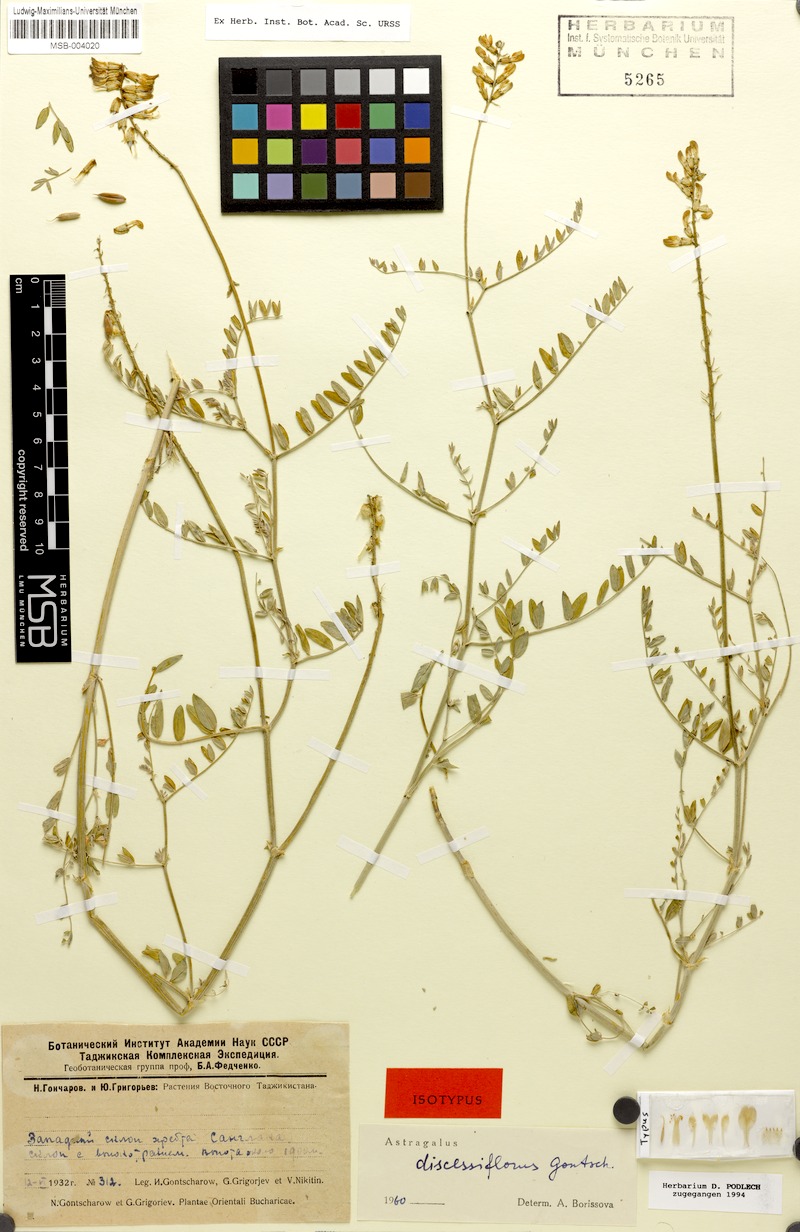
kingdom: Plantae
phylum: Tracheophyta
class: Magnoliopsida
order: Fabales
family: Fabaceae
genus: Astragalus
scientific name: Astragalus discessiflorus
